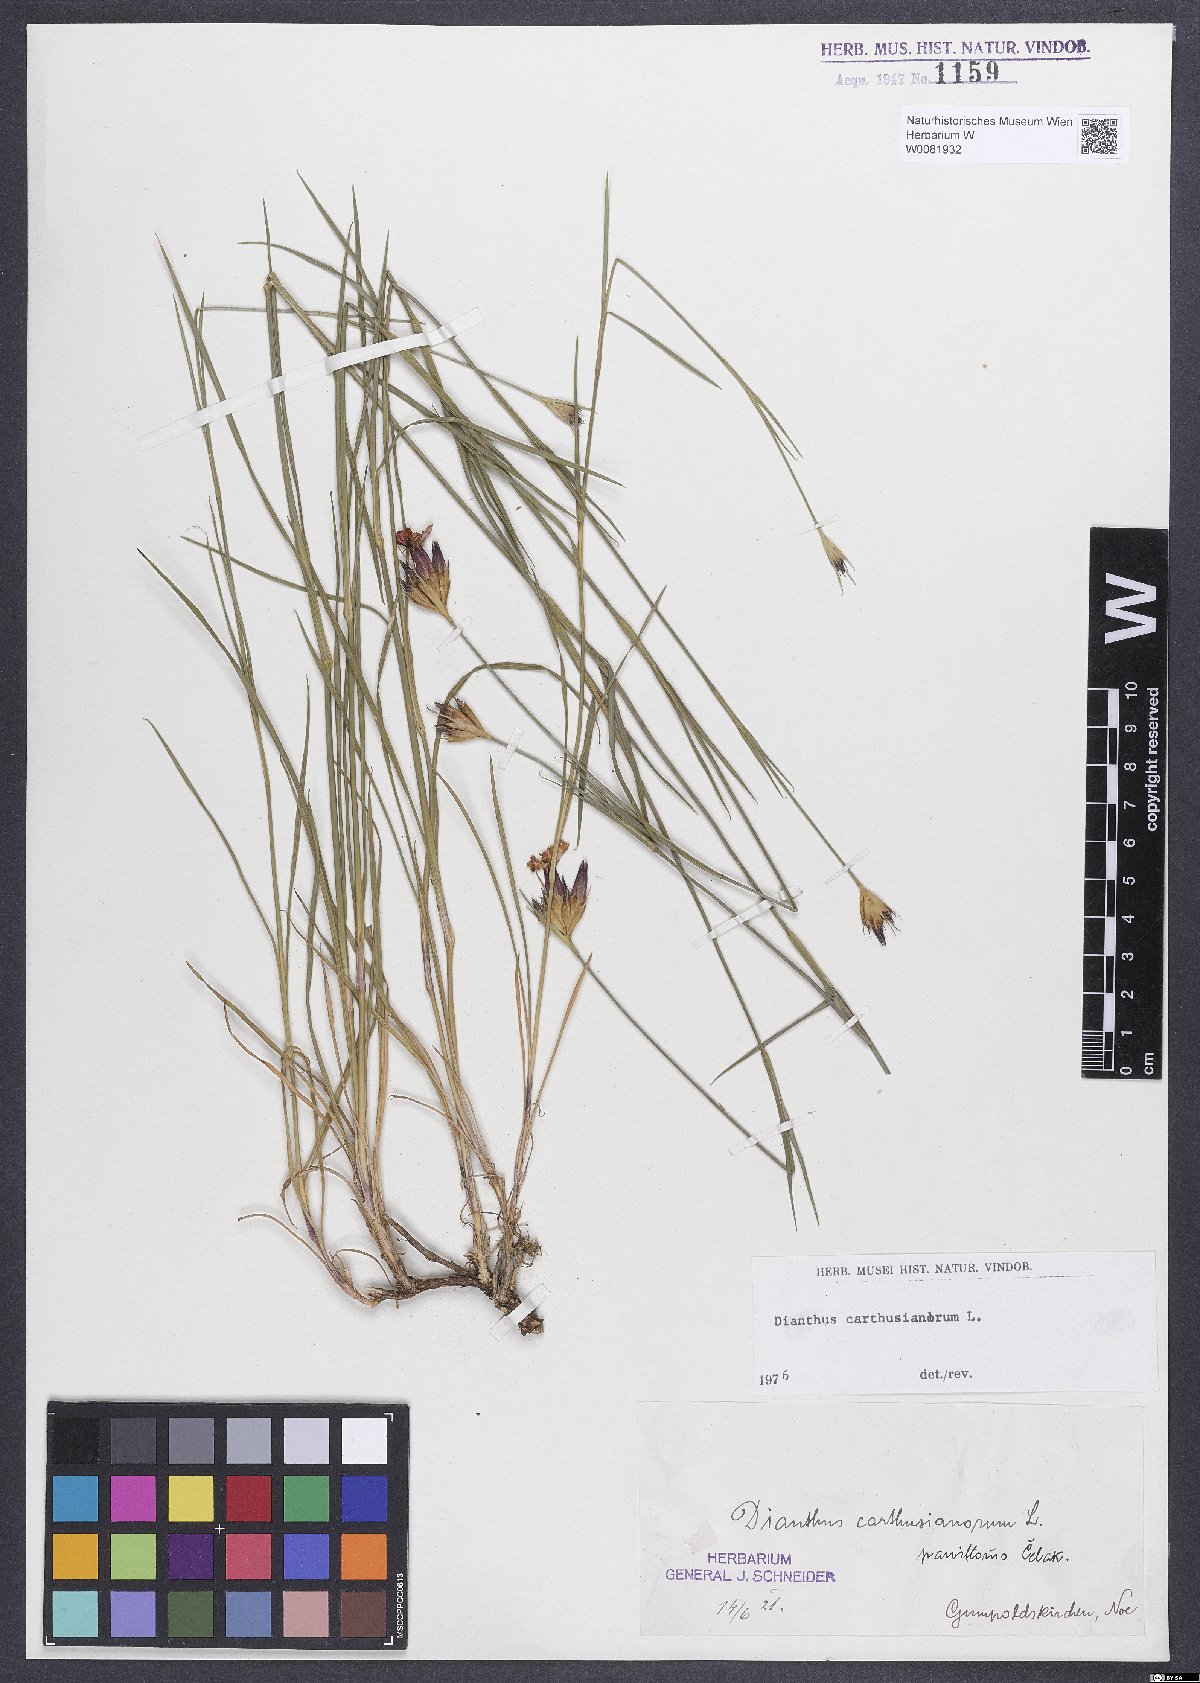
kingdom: Plantae
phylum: Tracheophyta
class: Magnoliopsida
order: Caryophyllales
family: Caryophyllaceae
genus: Dianthus
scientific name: Dianthus carthusianorum
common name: Carthusian pink
